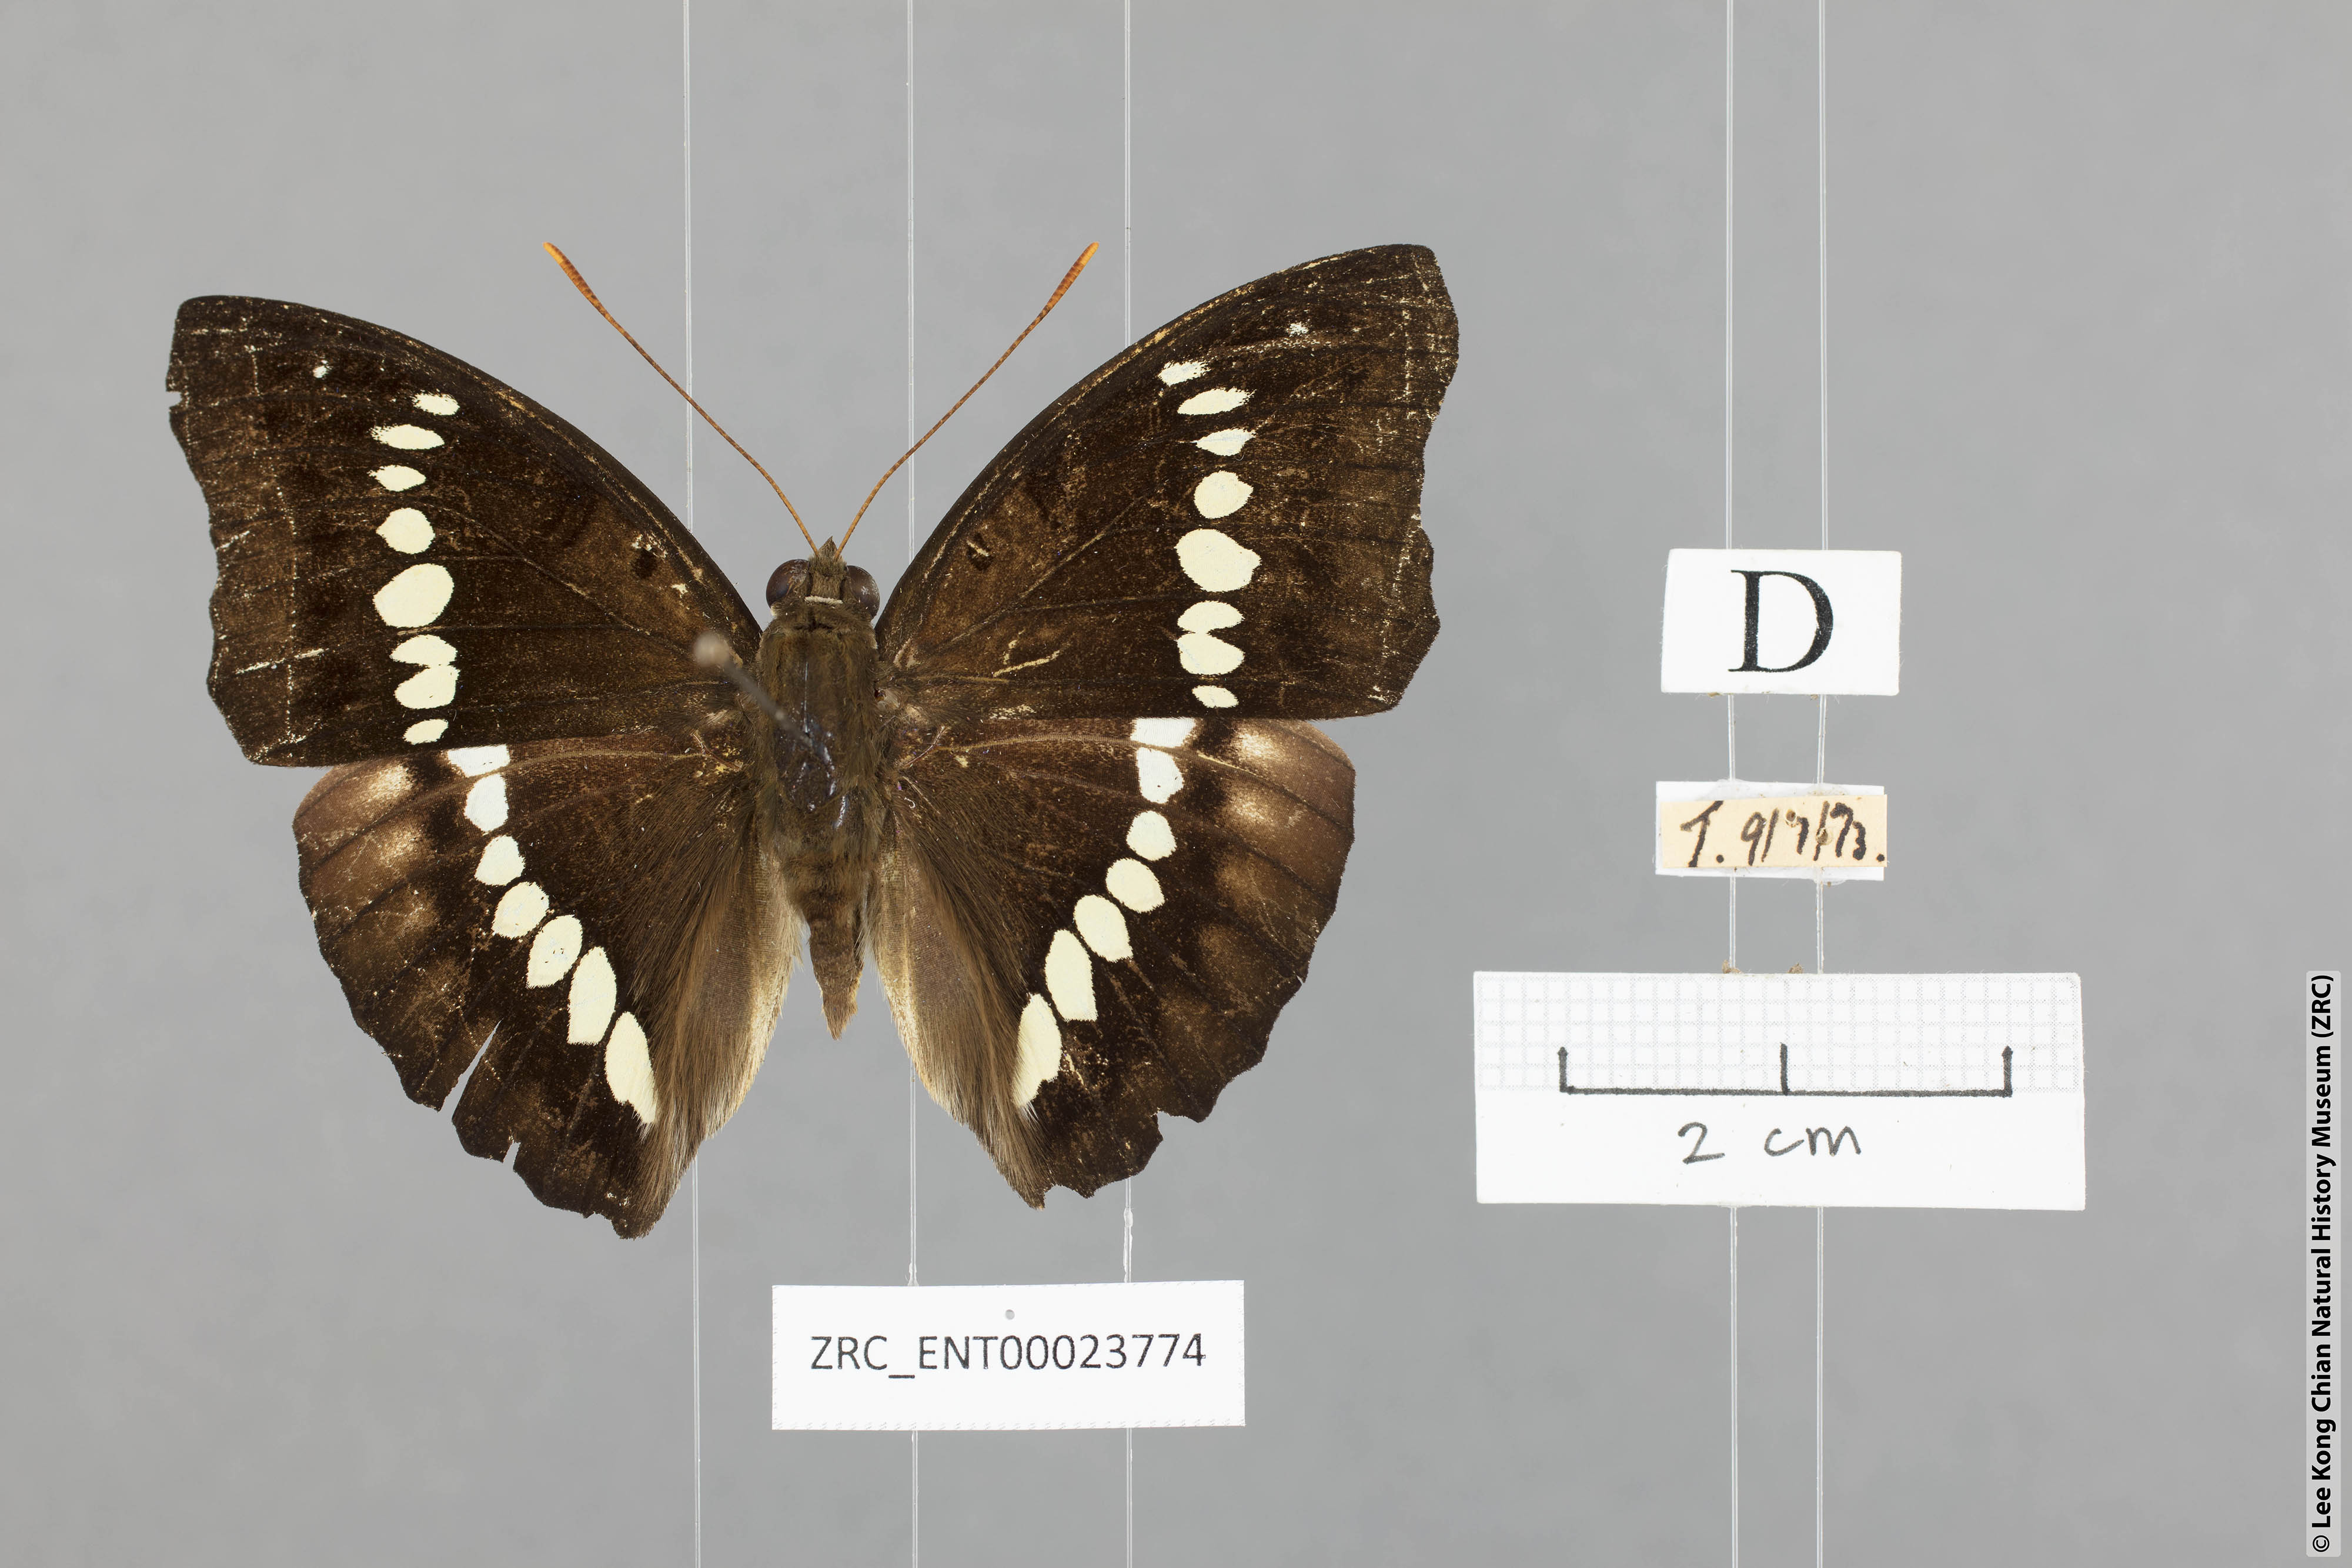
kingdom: Animalia
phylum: Arthropoda
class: Insecta
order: Lepidoptera
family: Nymphalidae
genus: Euthalia
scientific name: Euthalia Bassarona teuta
